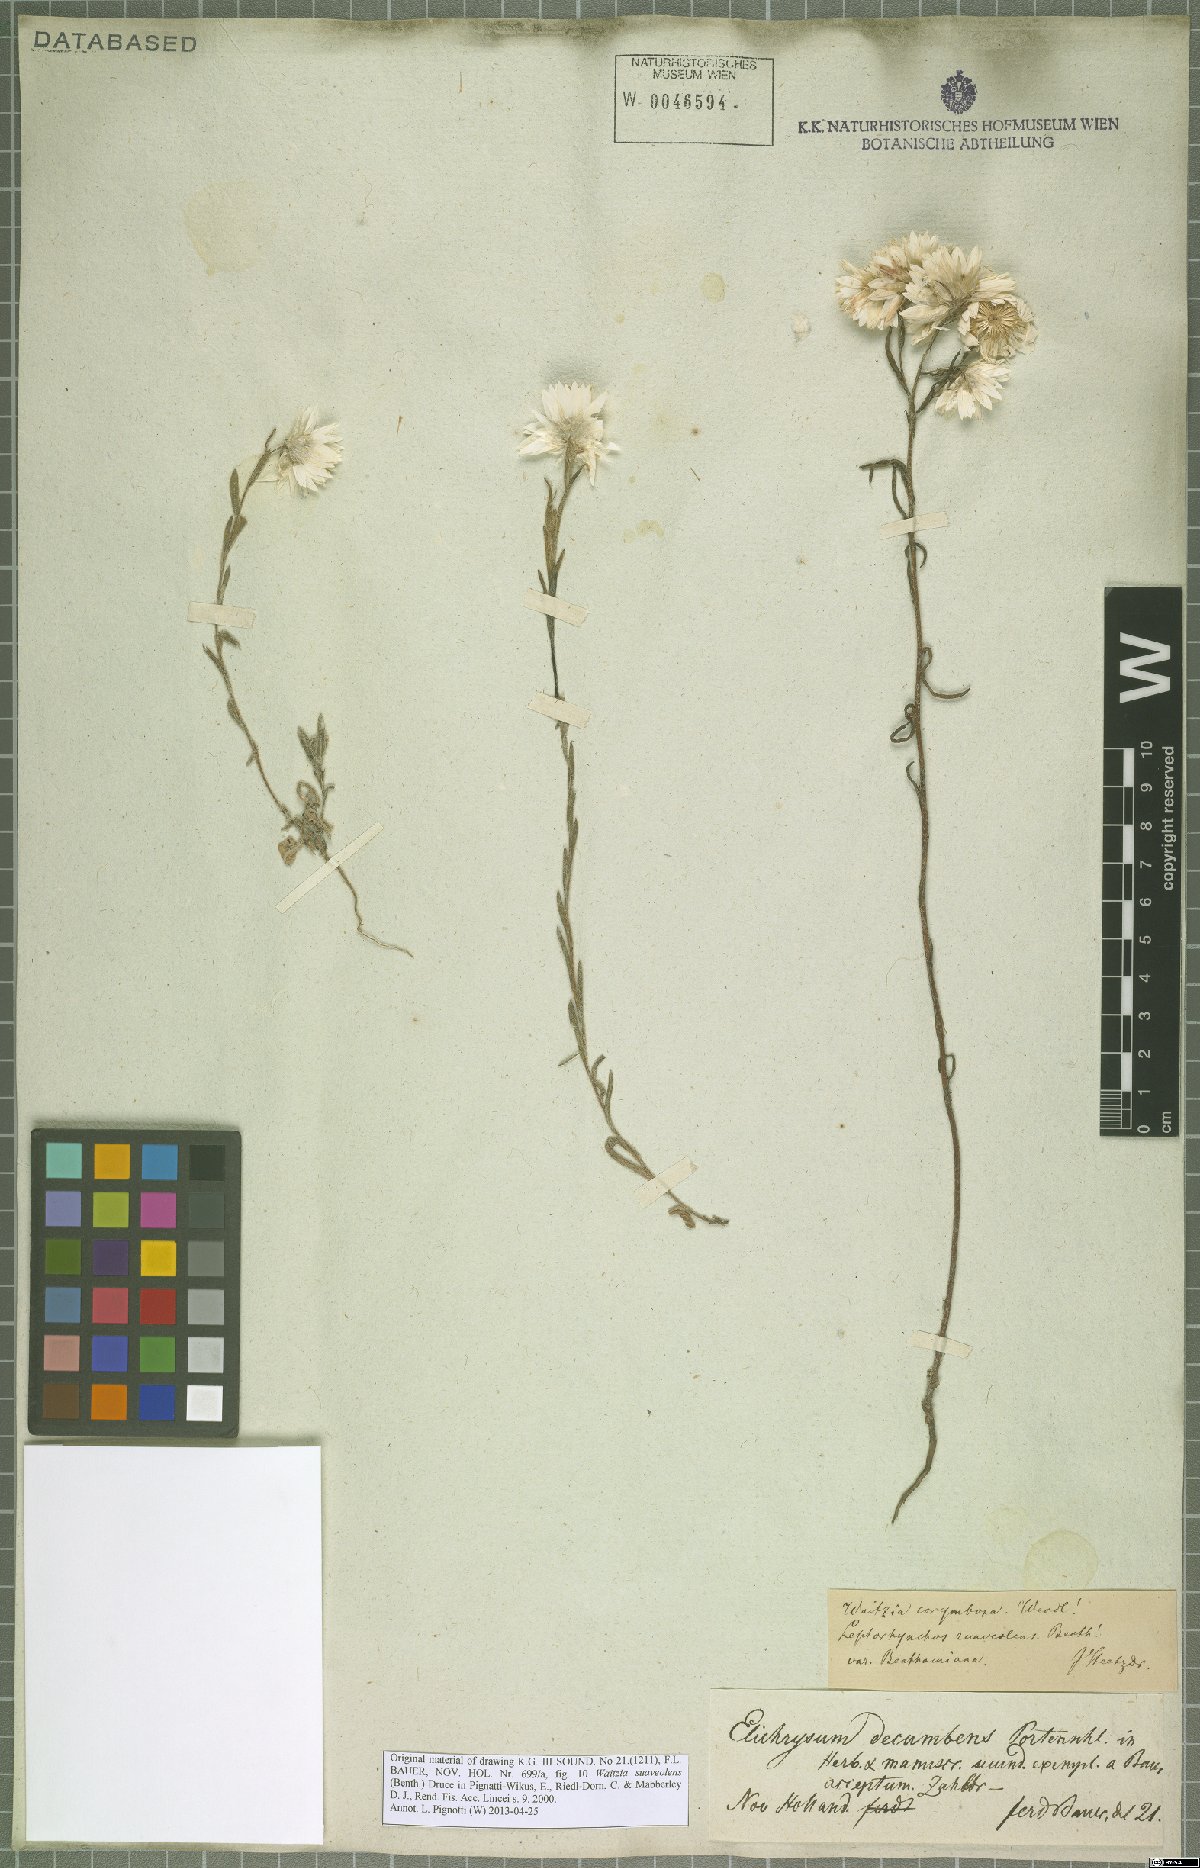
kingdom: Plantae
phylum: Tracheophyta
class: Magnoliopsida
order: Asterales
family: Asteraceae
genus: Waitzia
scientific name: Waitzia corymbosa
